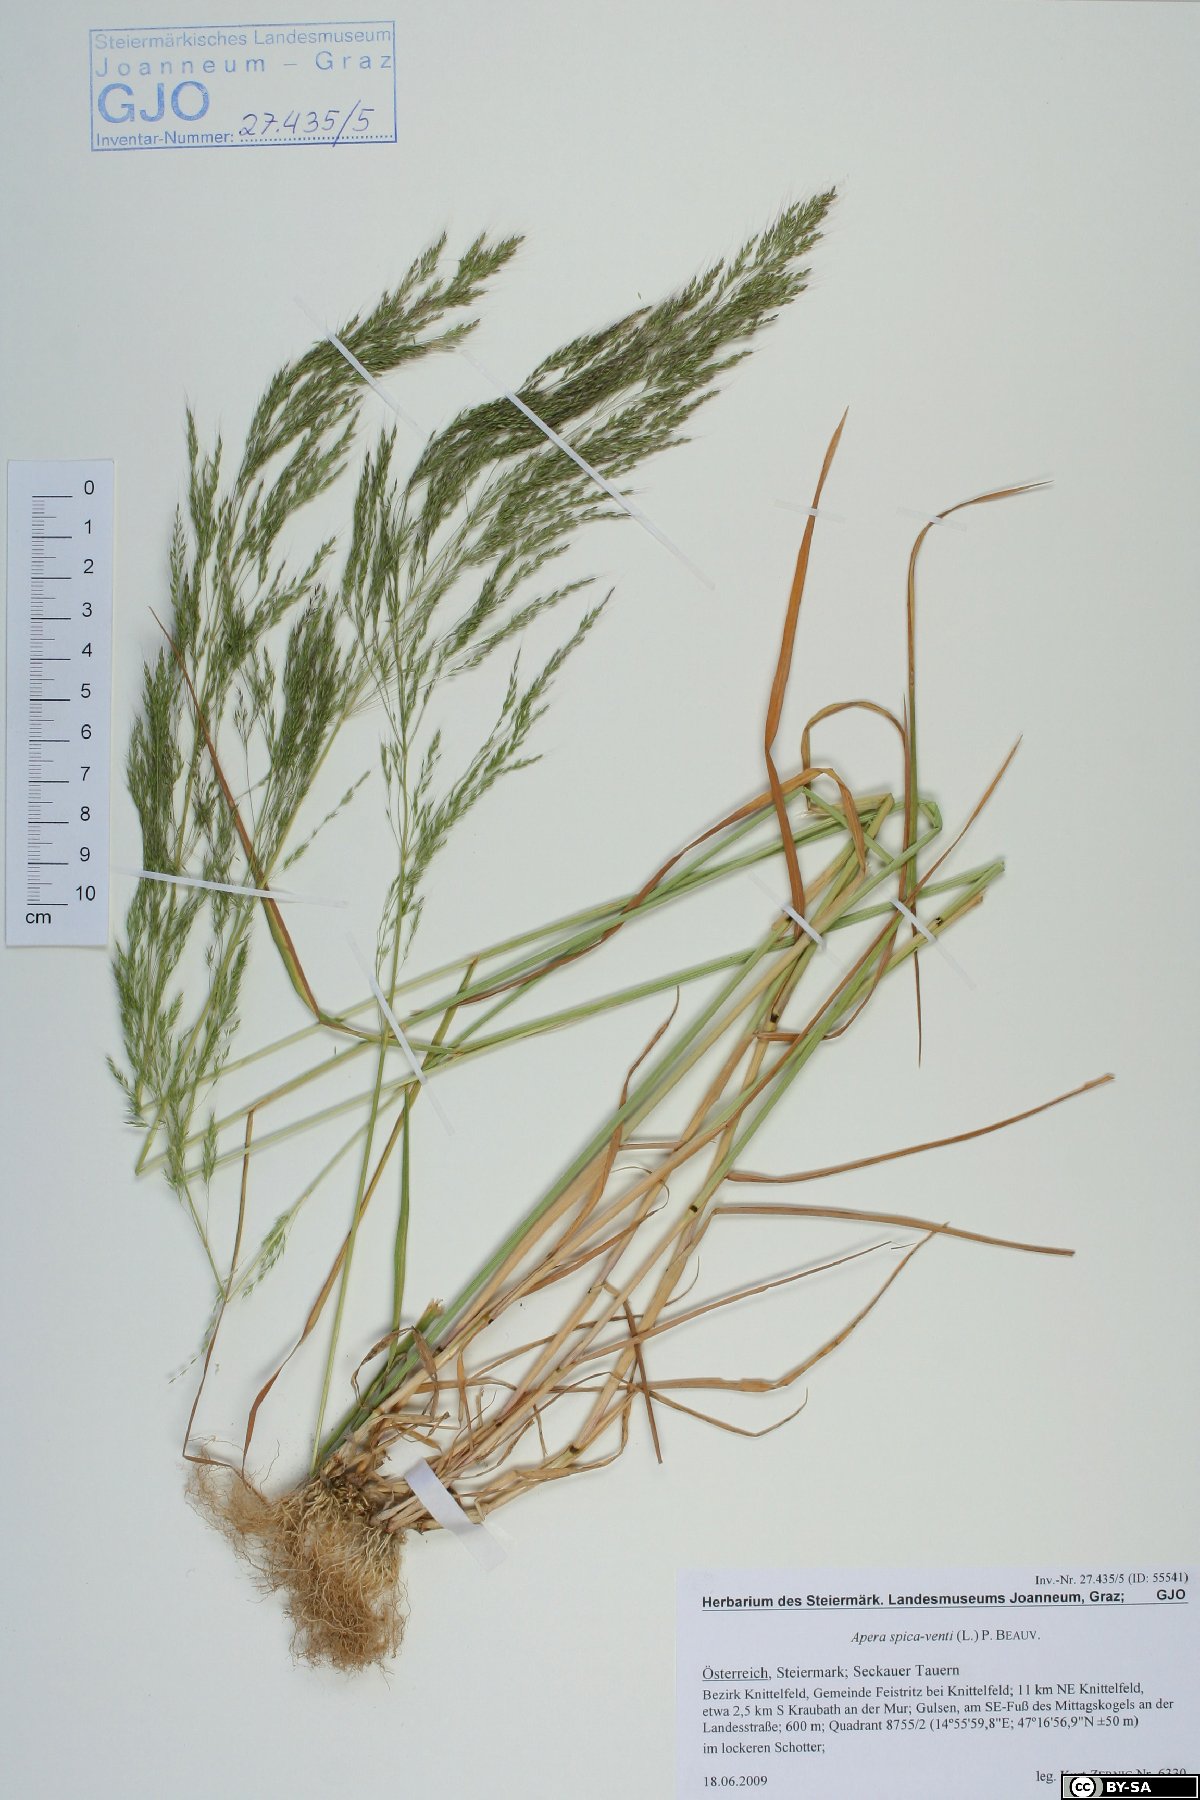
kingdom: Plantae
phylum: Tracheophyta
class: Liliopsida
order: Poales
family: Poaceae
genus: Apera
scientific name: Apera spica-venti
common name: Loose silky-bent
